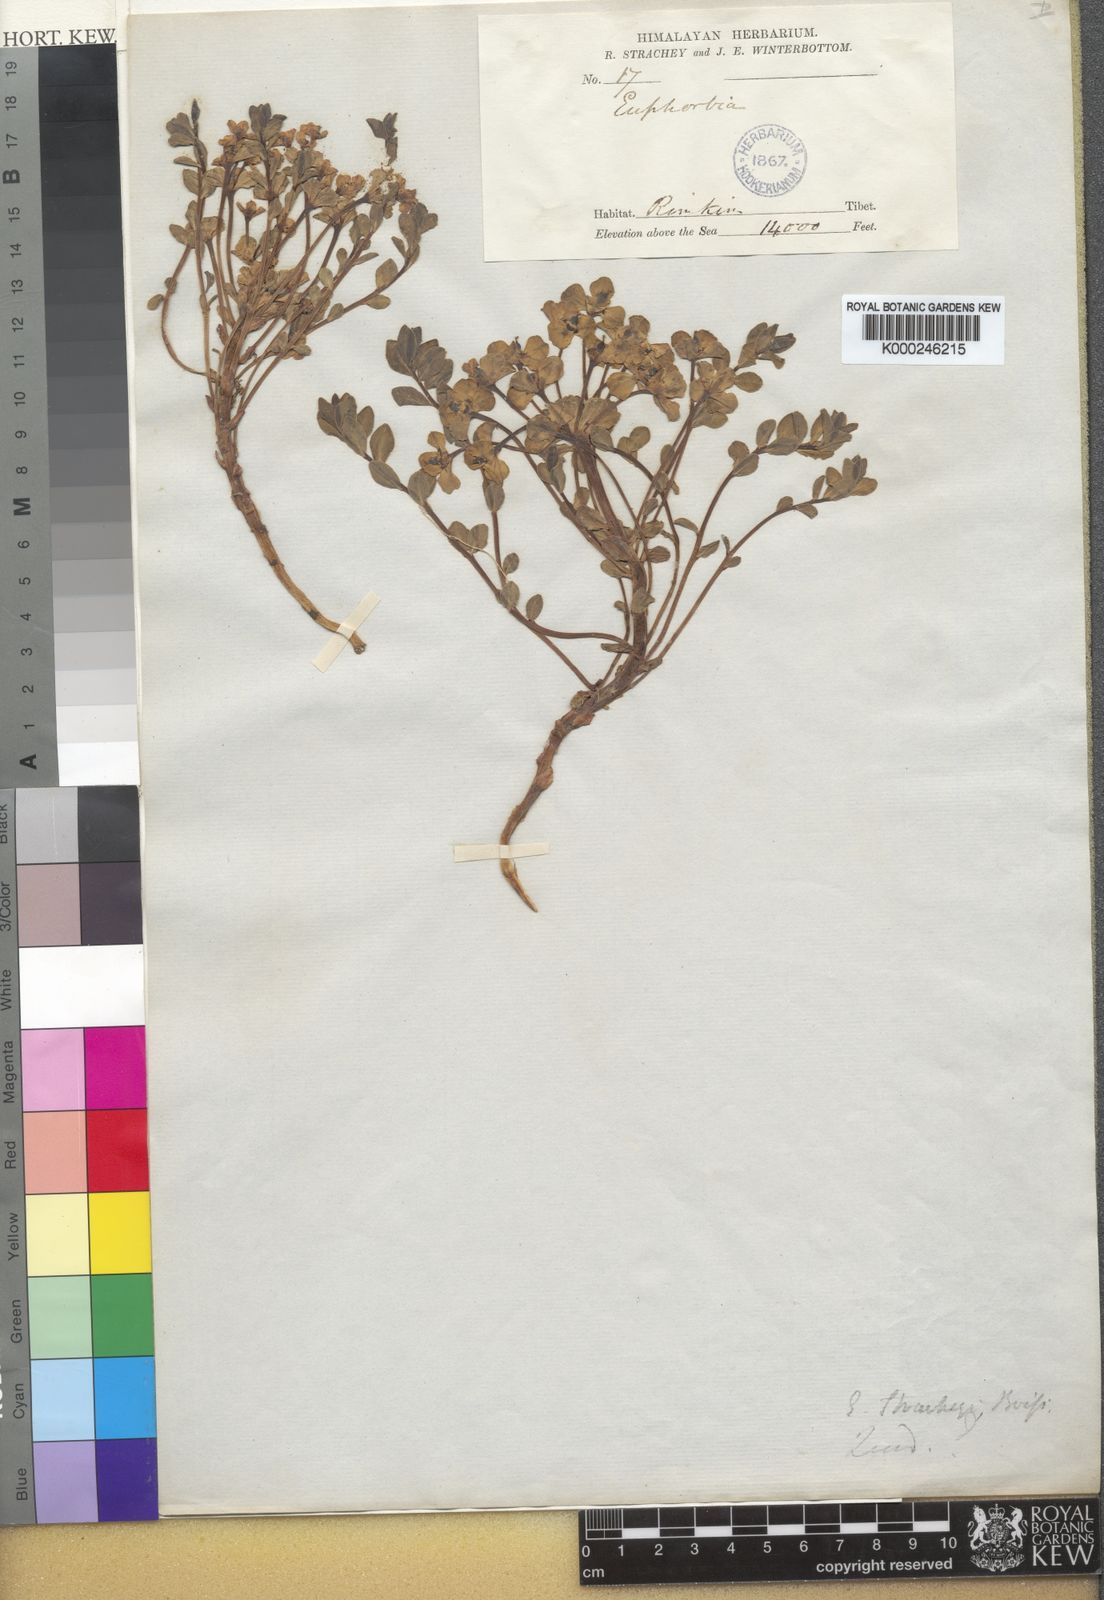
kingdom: Plantae
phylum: Tracheophyta
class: Magnoliopsida
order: Malpighiales
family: Euphorbiaceae
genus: Euphorbia
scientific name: Euphorbia stracheyi
